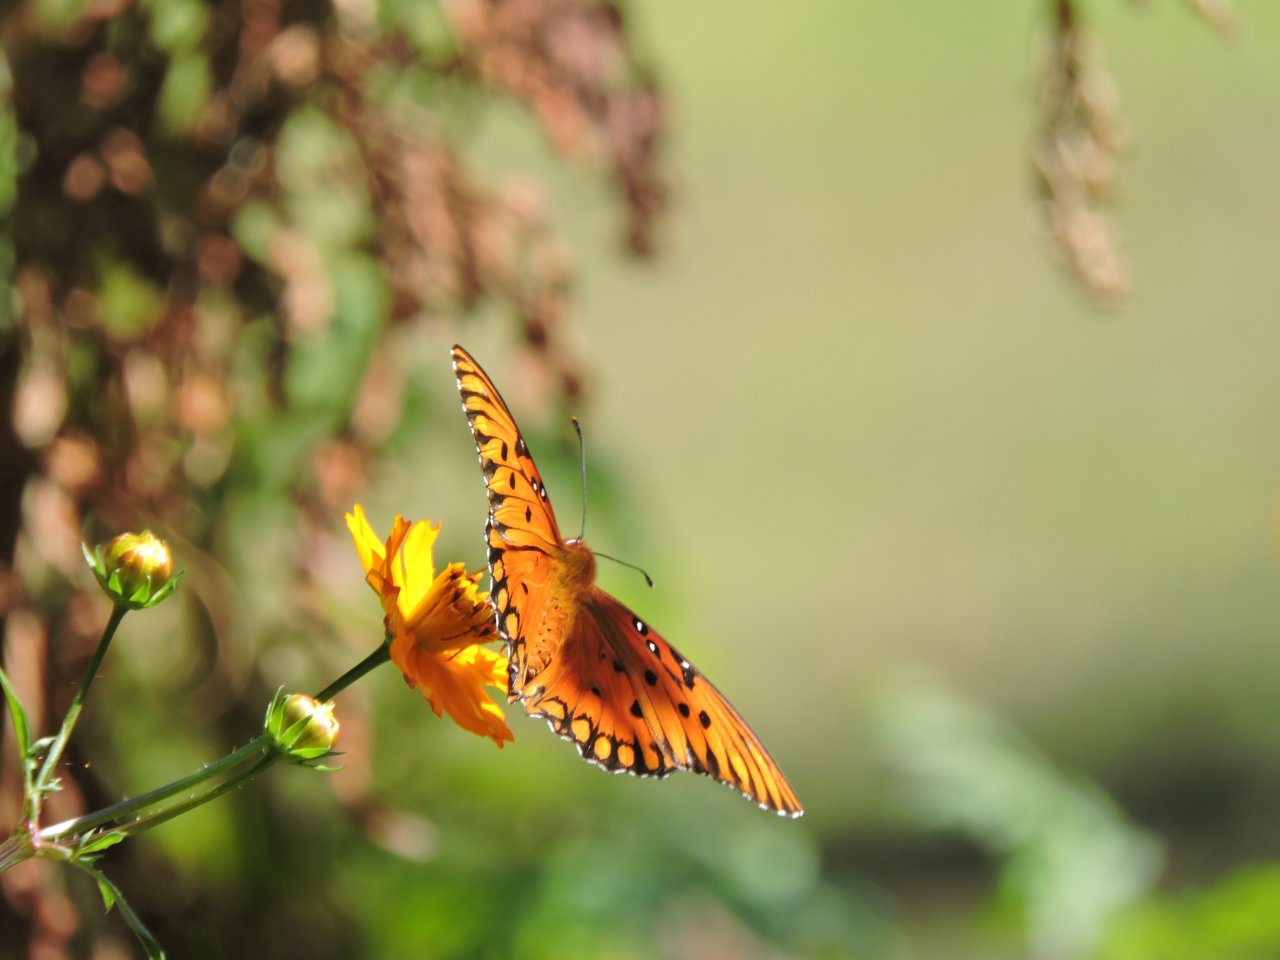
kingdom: Animalia
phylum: Arthropoda
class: Insecta
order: Lepidoptera
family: Nymphalidae
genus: Dione
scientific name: Dione vanillae
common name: Gulf Fritillary
